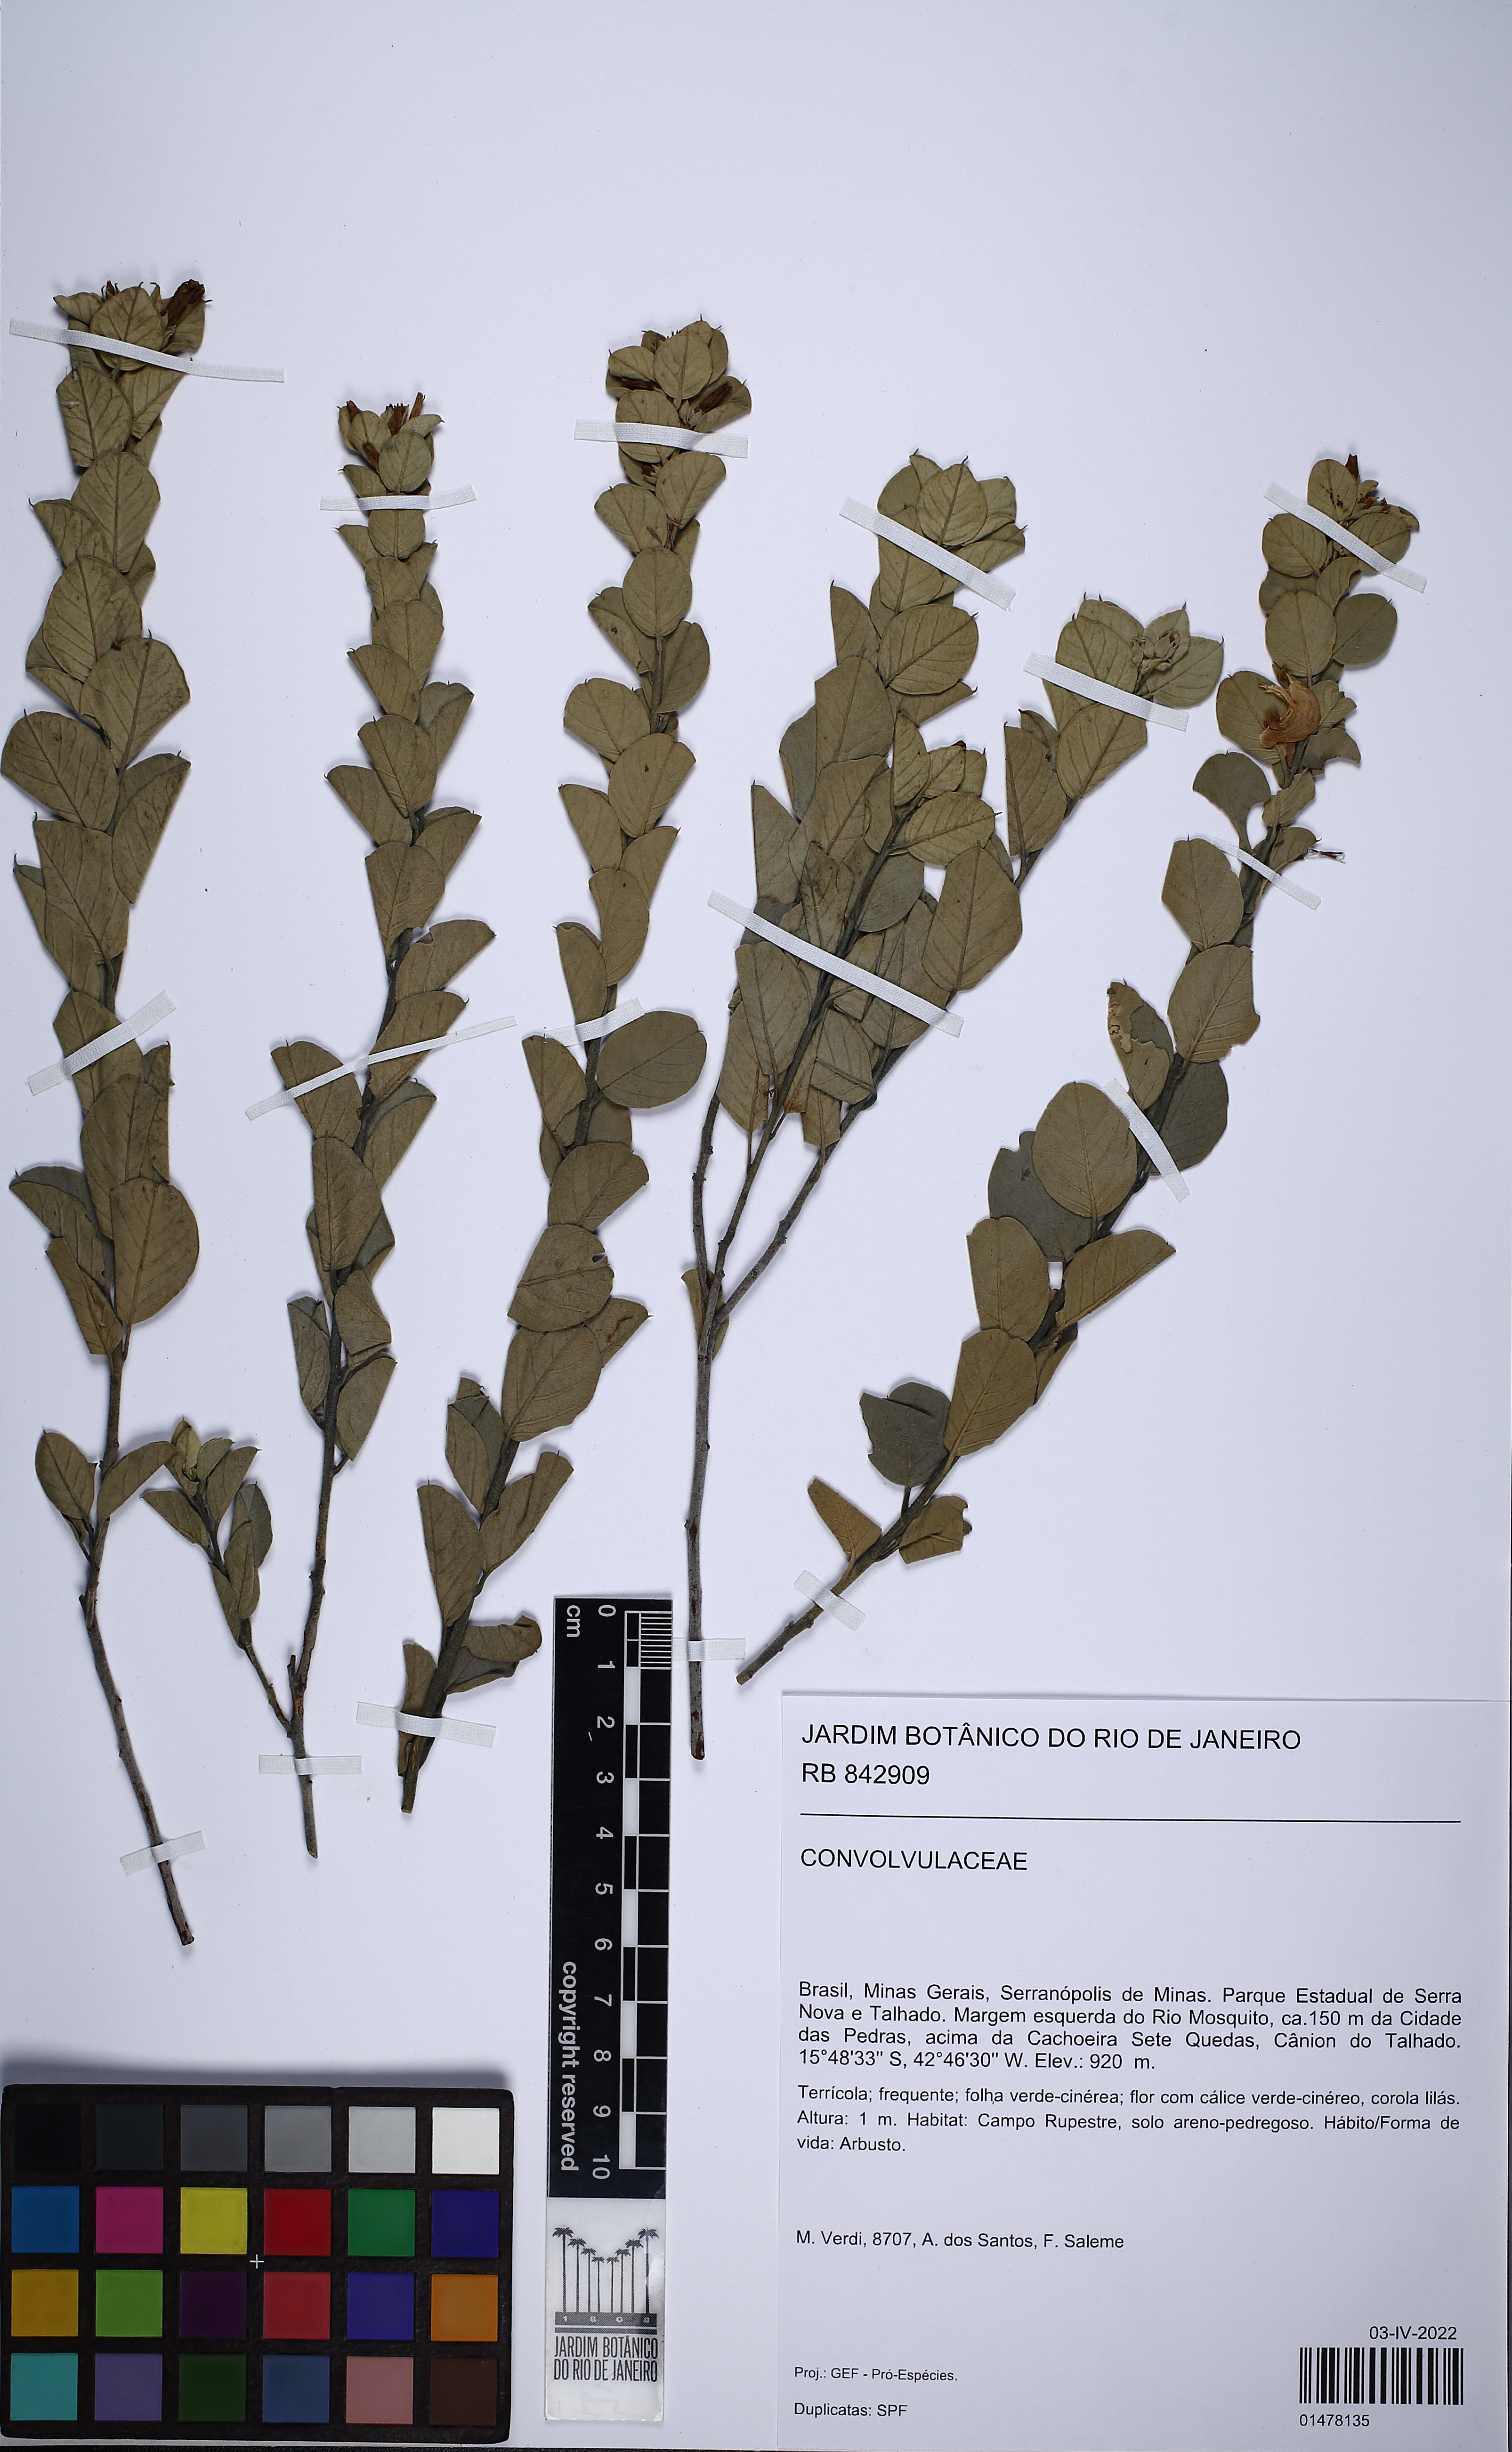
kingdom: Plantae
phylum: Tracheophyta
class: Magnoliopsida
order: Solanales
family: Convolvulaceae
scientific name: Convolvulaceae
